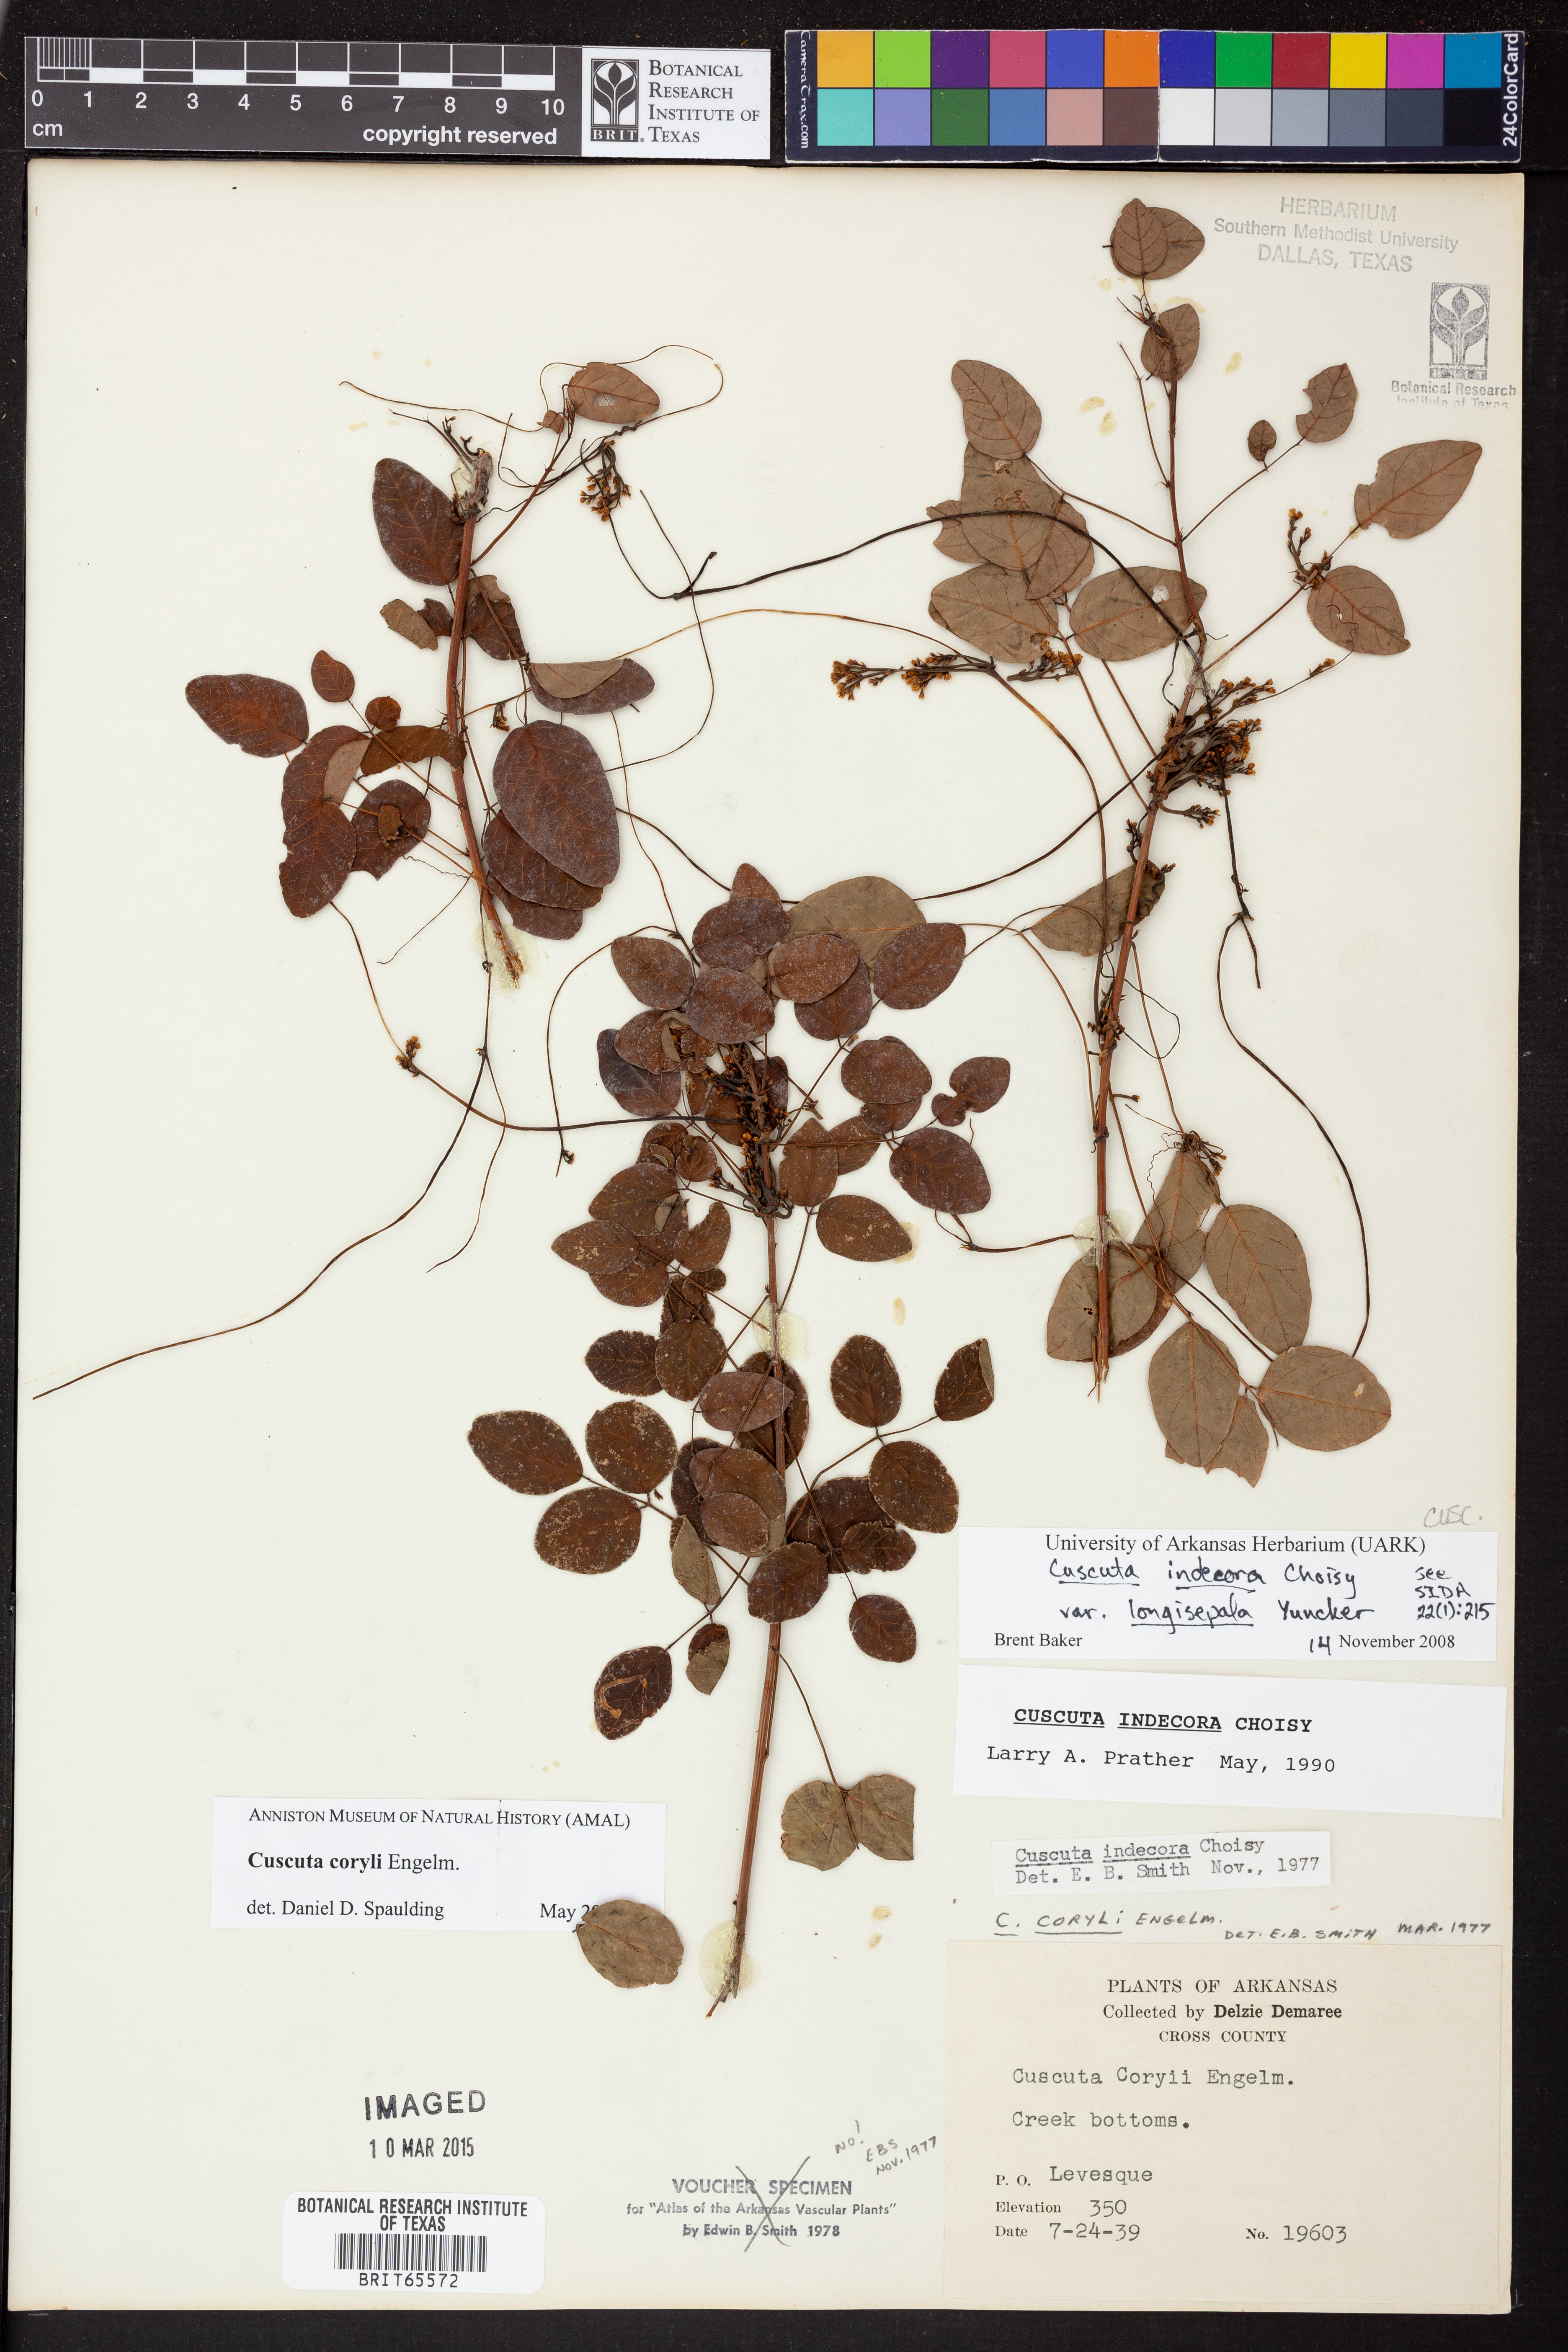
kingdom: Plantae
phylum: Tracheophyta
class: Magnoliopsida
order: Solanales
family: Convolvulaceae
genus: Cuscuta
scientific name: Cuscuta indecora
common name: Large-seed dodder
